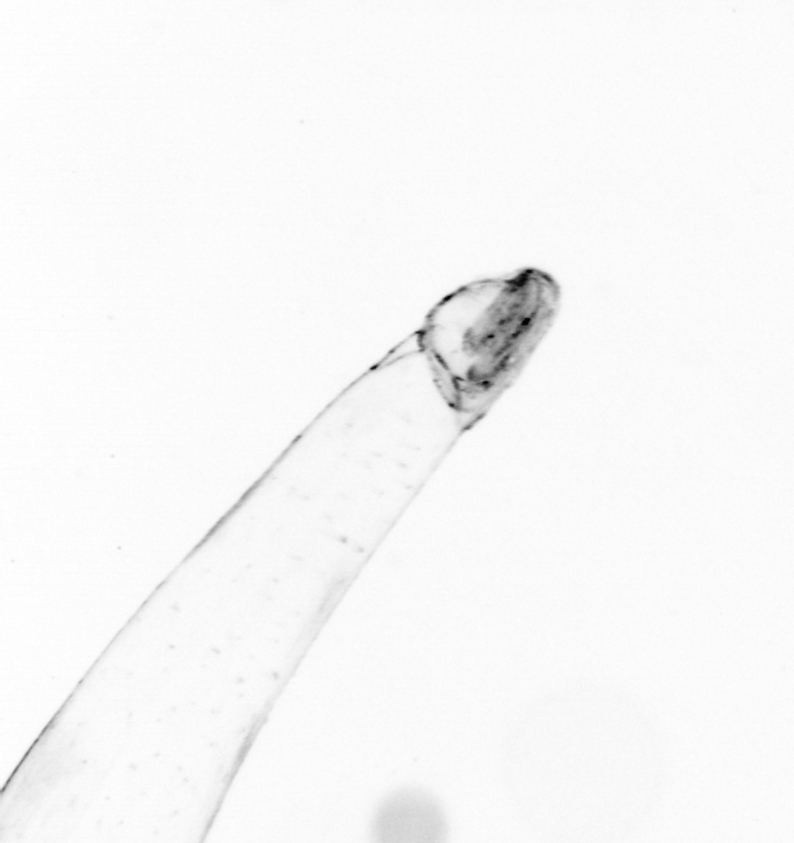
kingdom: Animalia
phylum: Chaetognatha
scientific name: Chaetognatha
